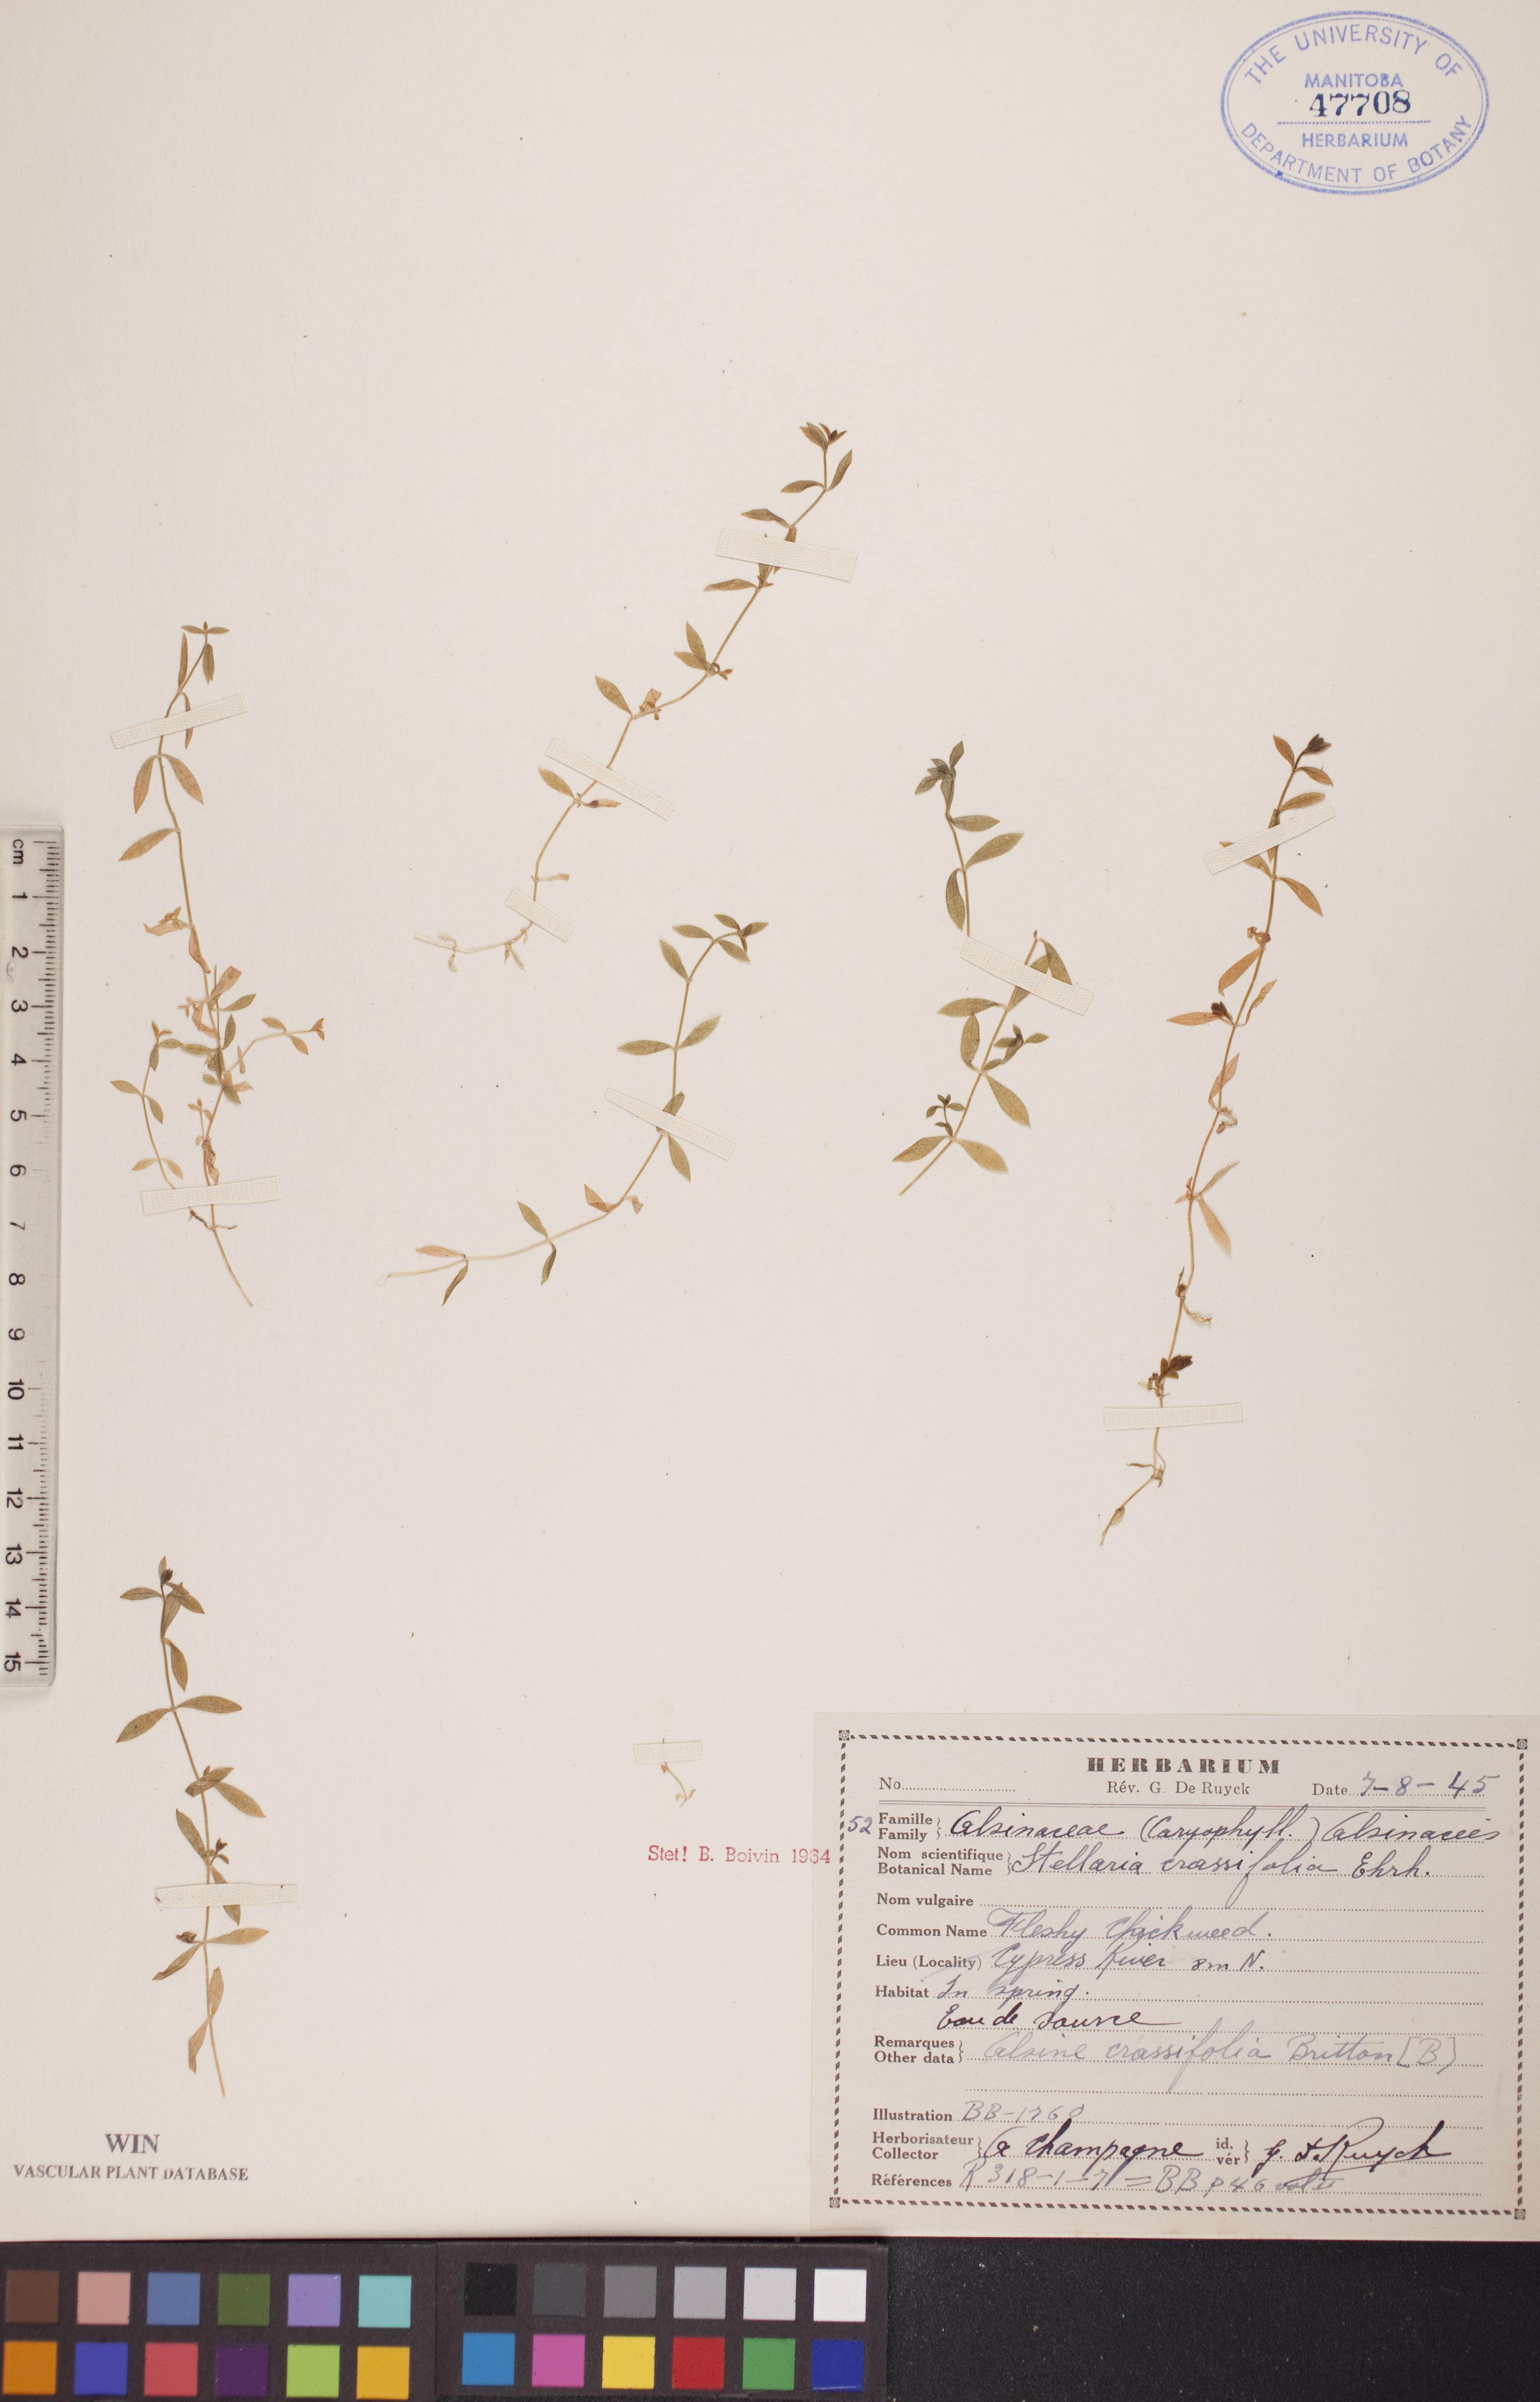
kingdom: Plantae
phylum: Tracheophyta
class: Magnoliopsida
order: Caryophyllales
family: Caryophyllaceae
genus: Stellaria
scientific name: Stellaria crassifolia
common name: Fleshy starwort
